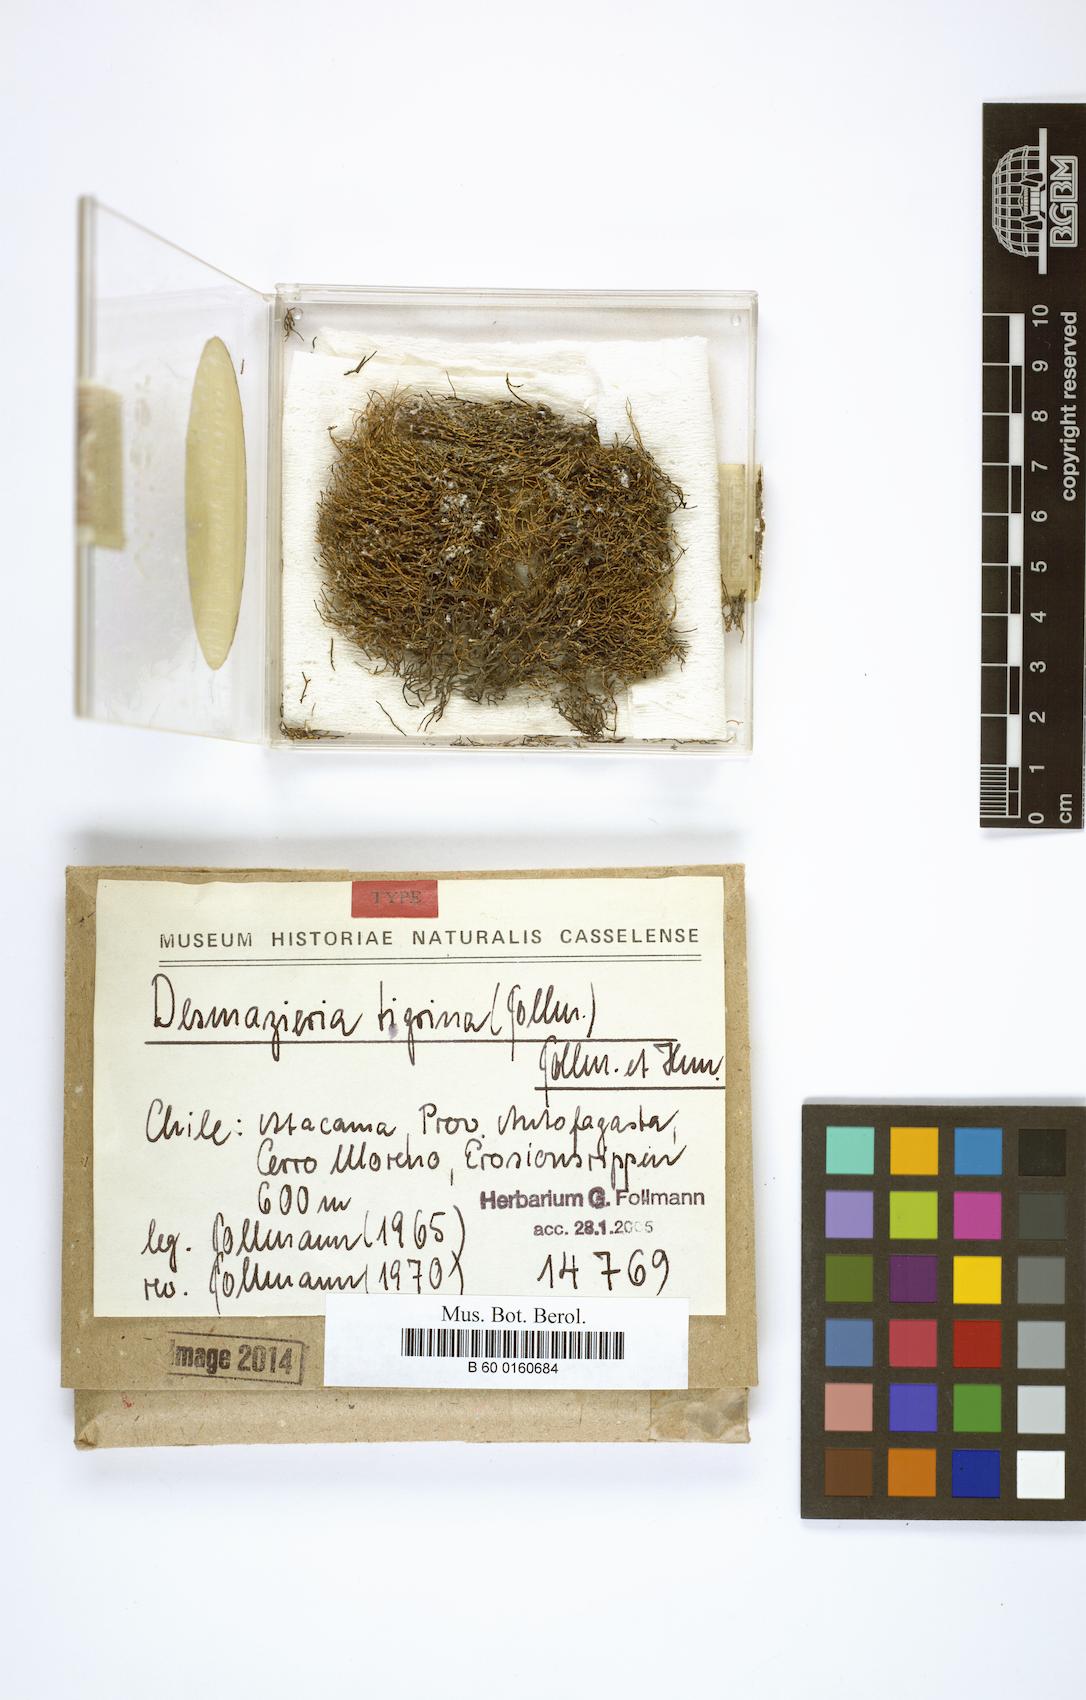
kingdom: Fungi
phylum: Ascomycota
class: Lecanoromycetes
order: Lecanorales
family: Ramalinaceae
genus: Niebla
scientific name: Niebla tigrina
